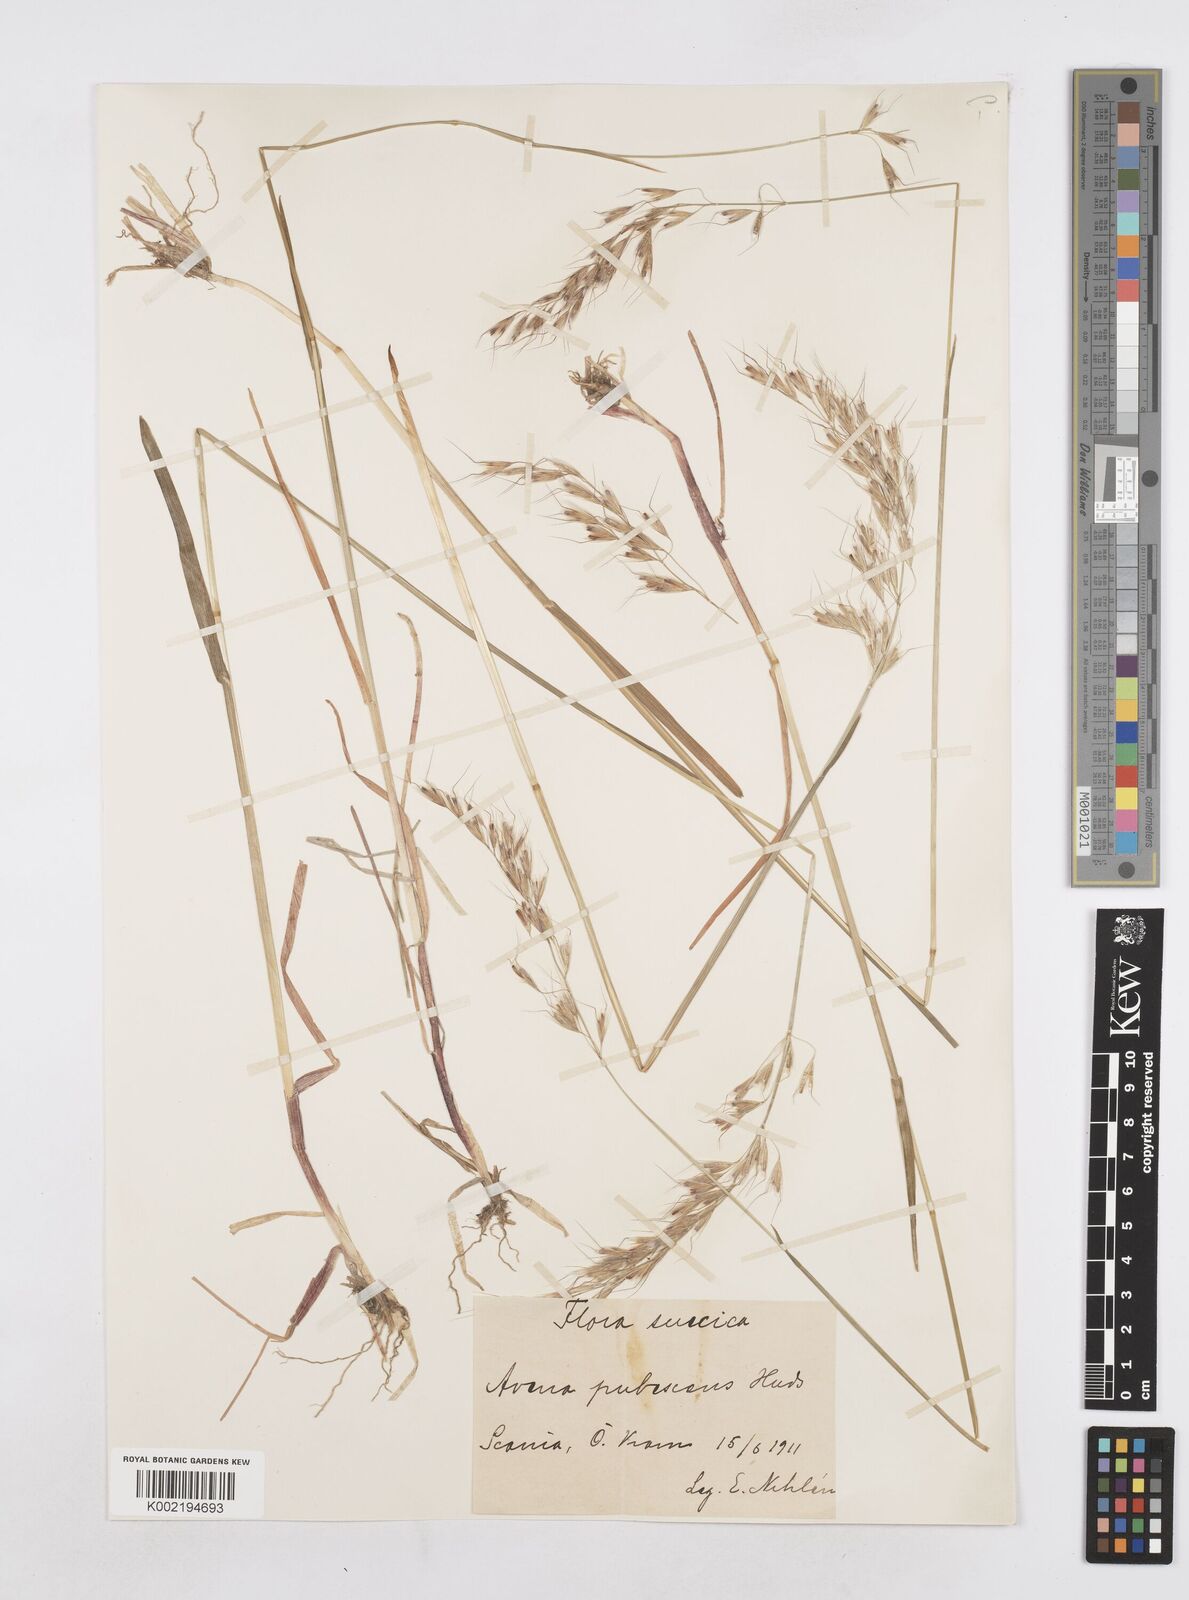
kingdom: Plantae
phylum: Tracheophyta
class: Liliopsida
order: Poales
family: Poaceae
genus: Avenula
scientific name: Avenula pubescens
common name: Downy alpine oatgrass
